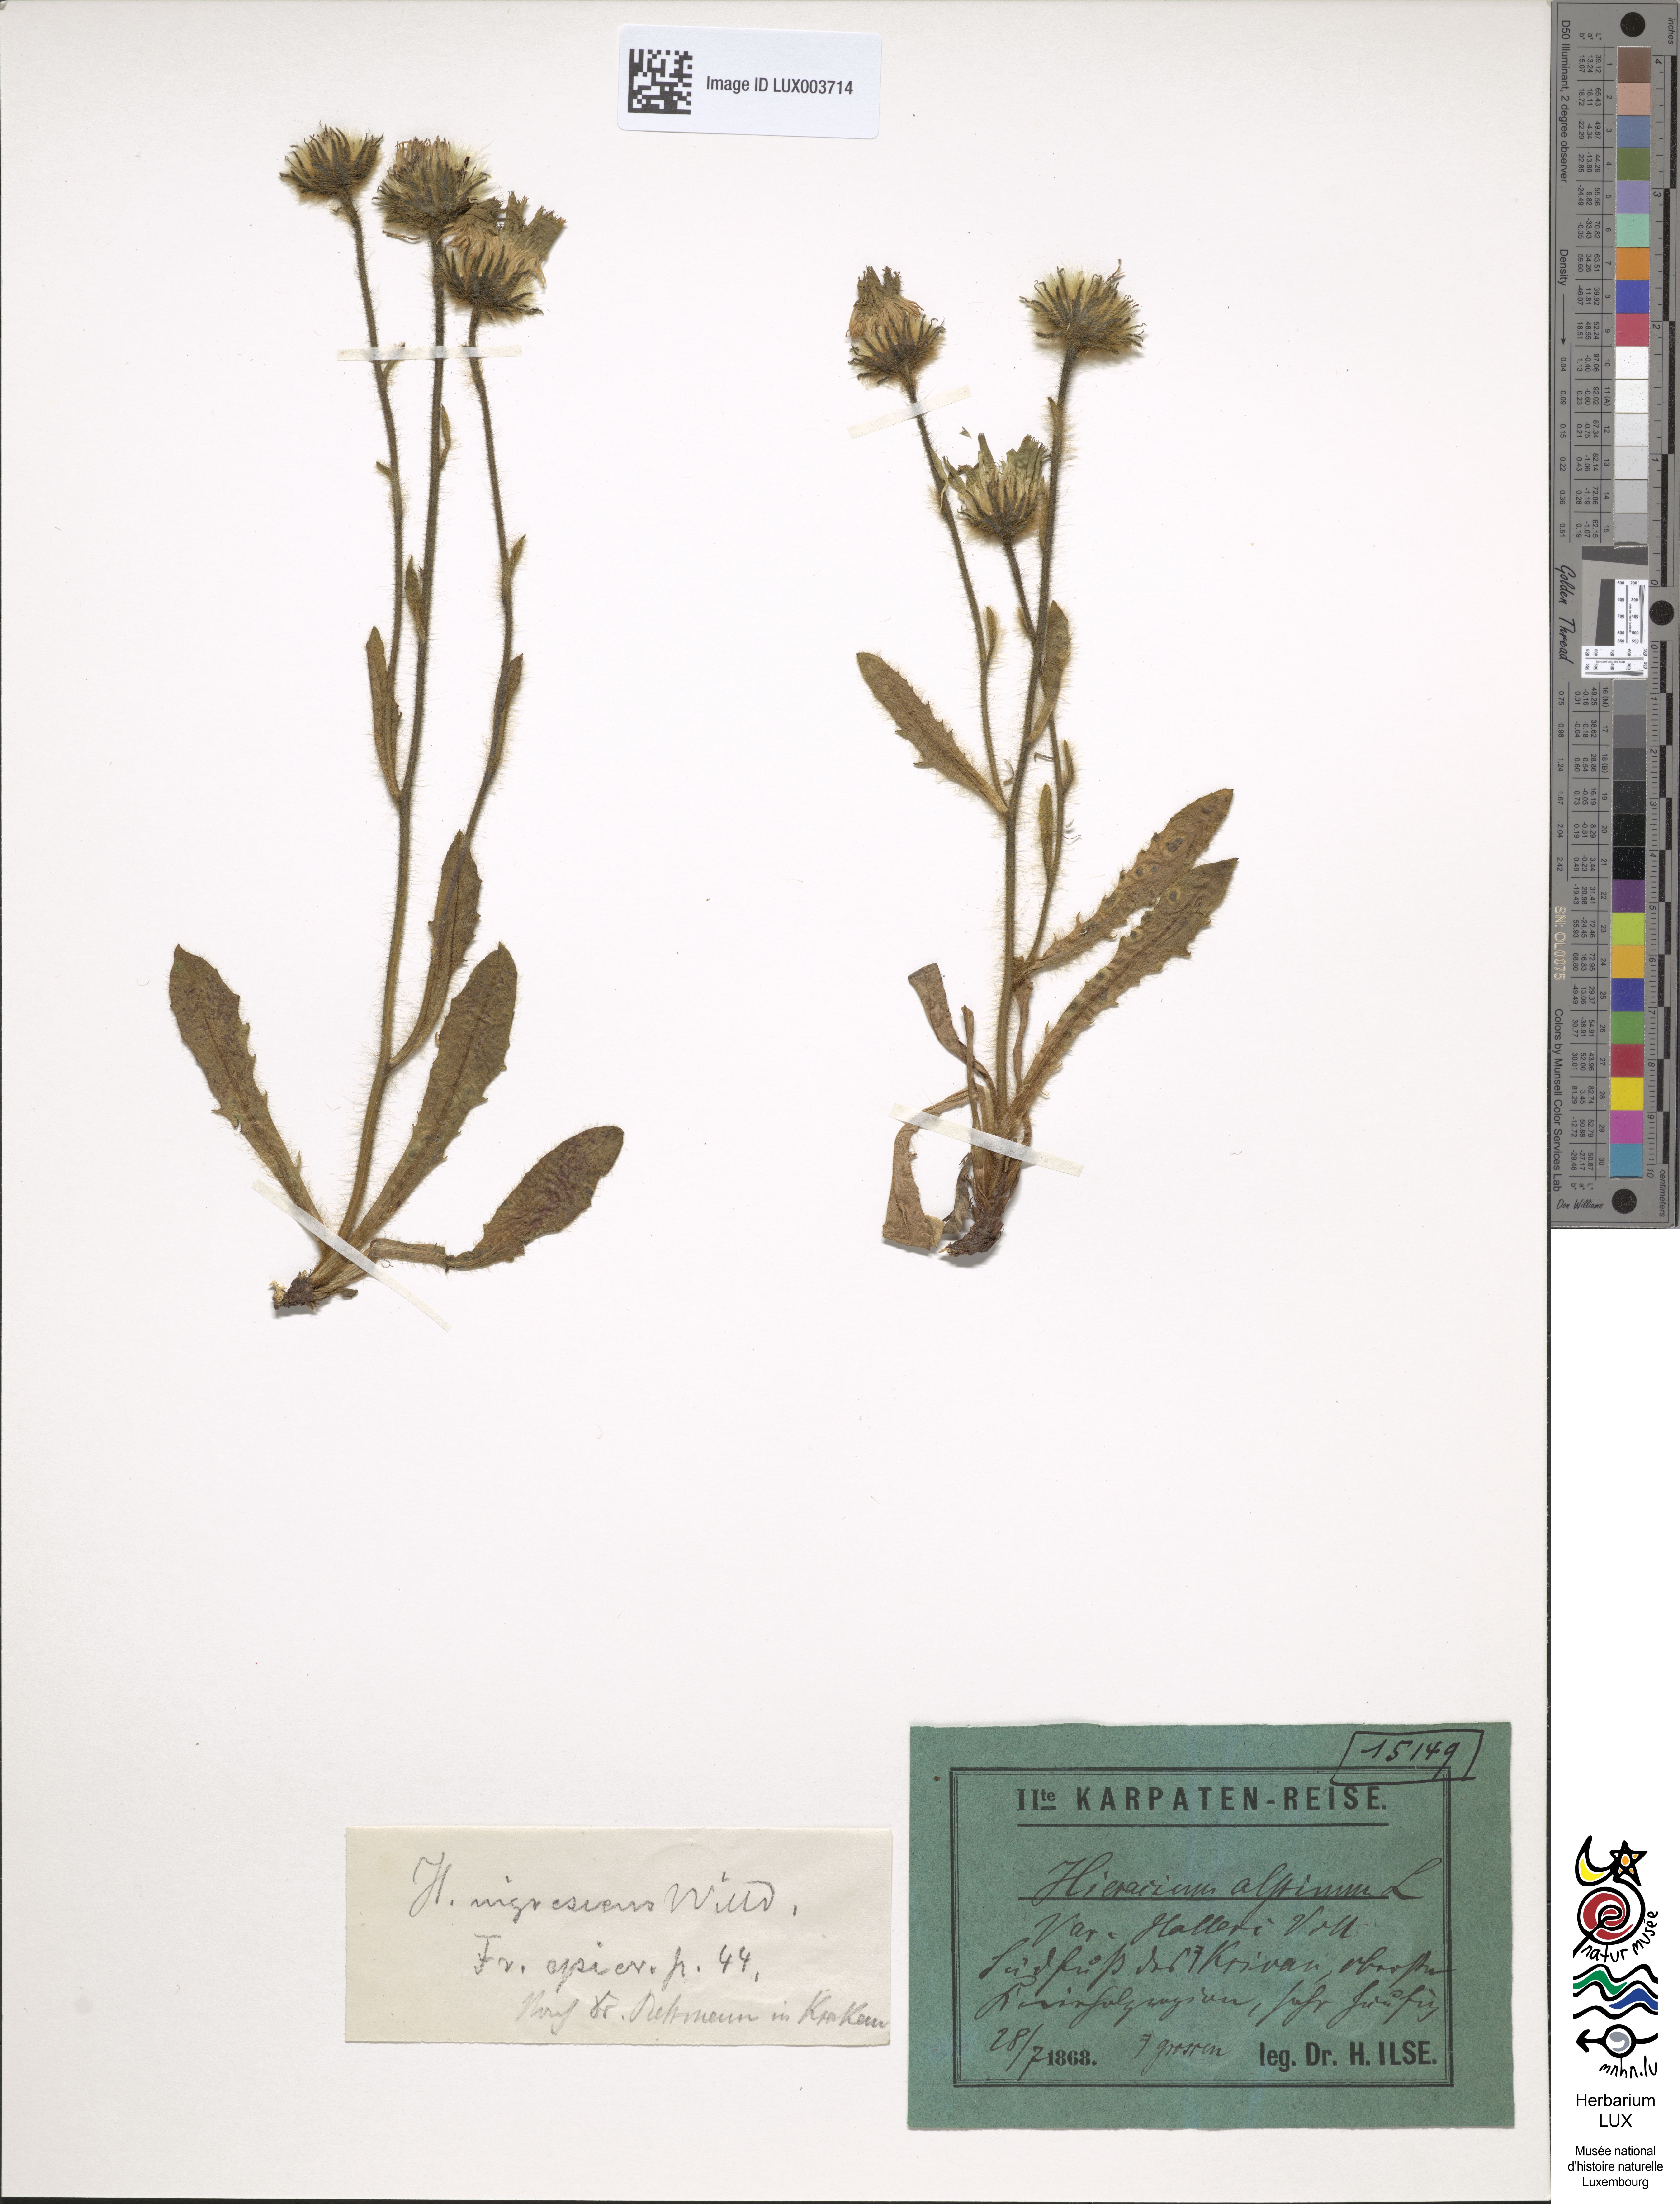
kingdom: Plantae
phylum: Tracheophyta
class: Magnoliopsida
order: Asterales
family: Asteraceae
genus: Hieracium
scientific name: Hieracium alpinum
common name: Alpine hawkweed
